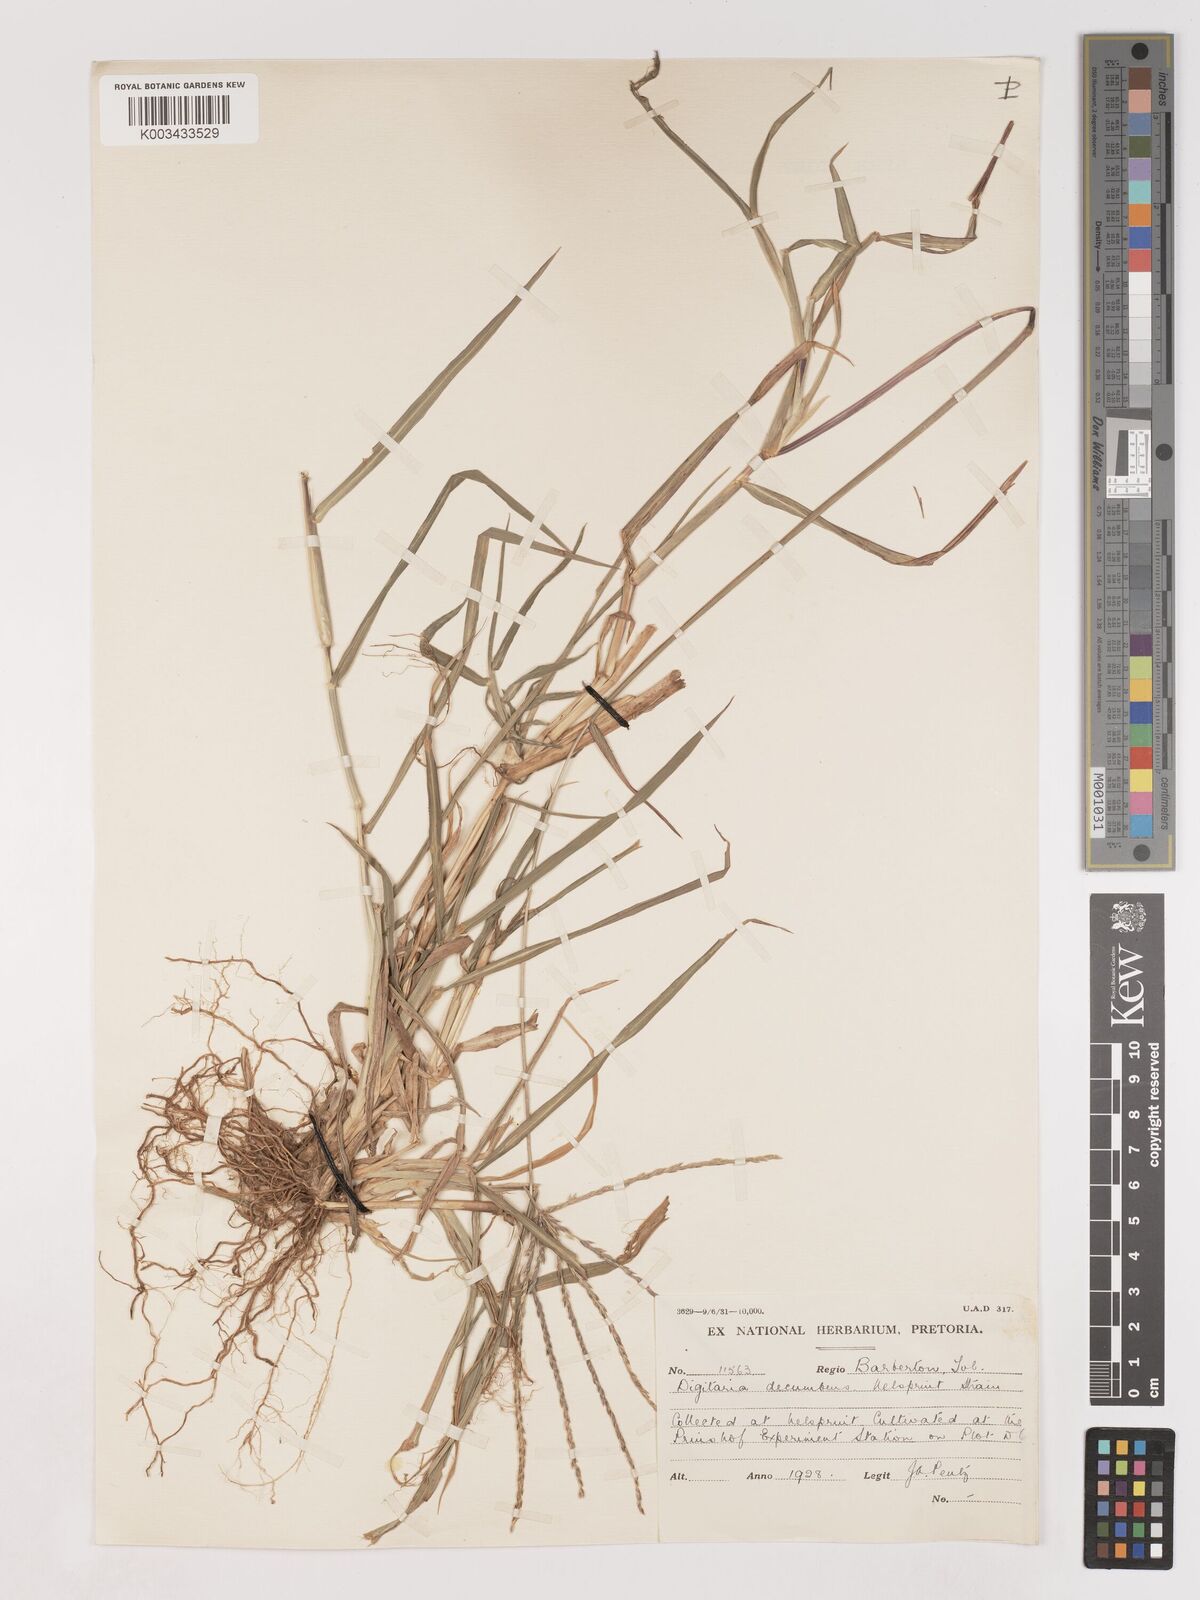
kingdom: Plantae
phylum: Tracheophyta
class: Liliopsida
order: Poales
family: Poaceae
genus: Digitaria
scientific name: Digitaria eriantha
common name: Digitgrass
